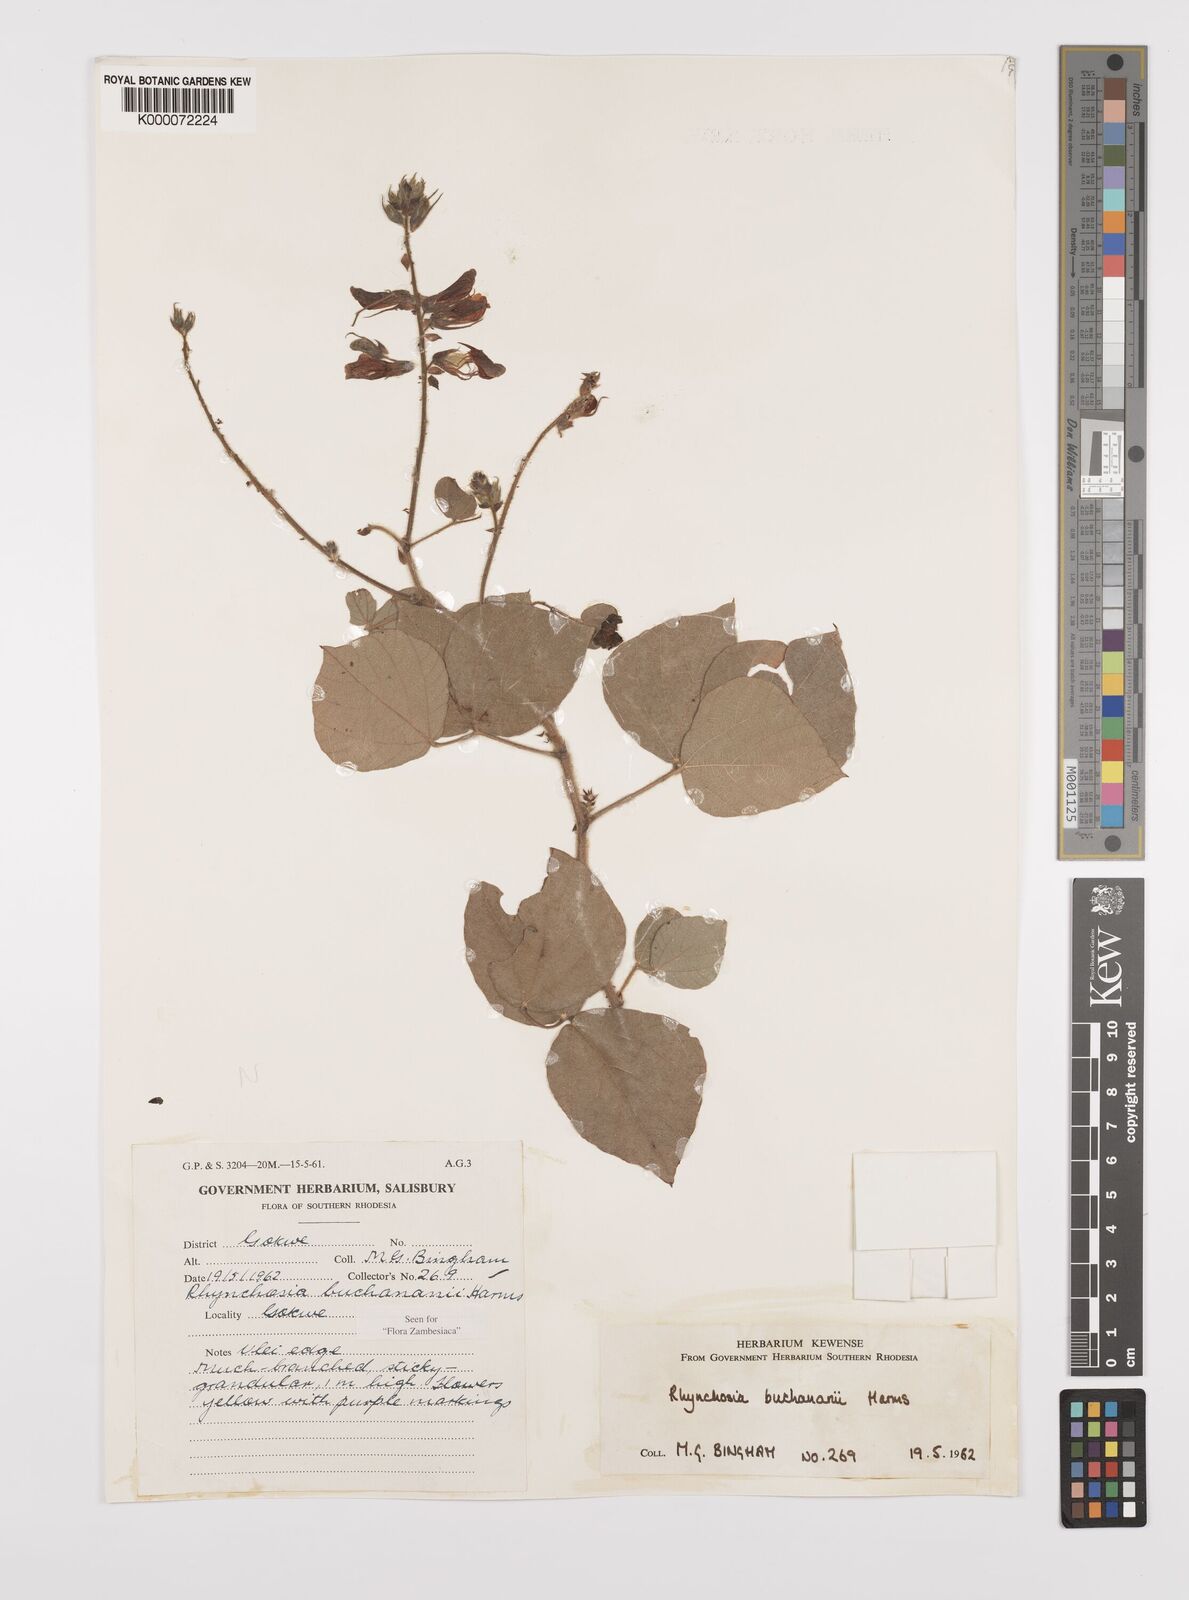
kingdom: Plantae
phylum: Tracheophyta
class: Magnoliopsida
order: Fabales
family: Fabaceae
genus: Rhynchosia
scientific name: Rhynchosia buchananii
